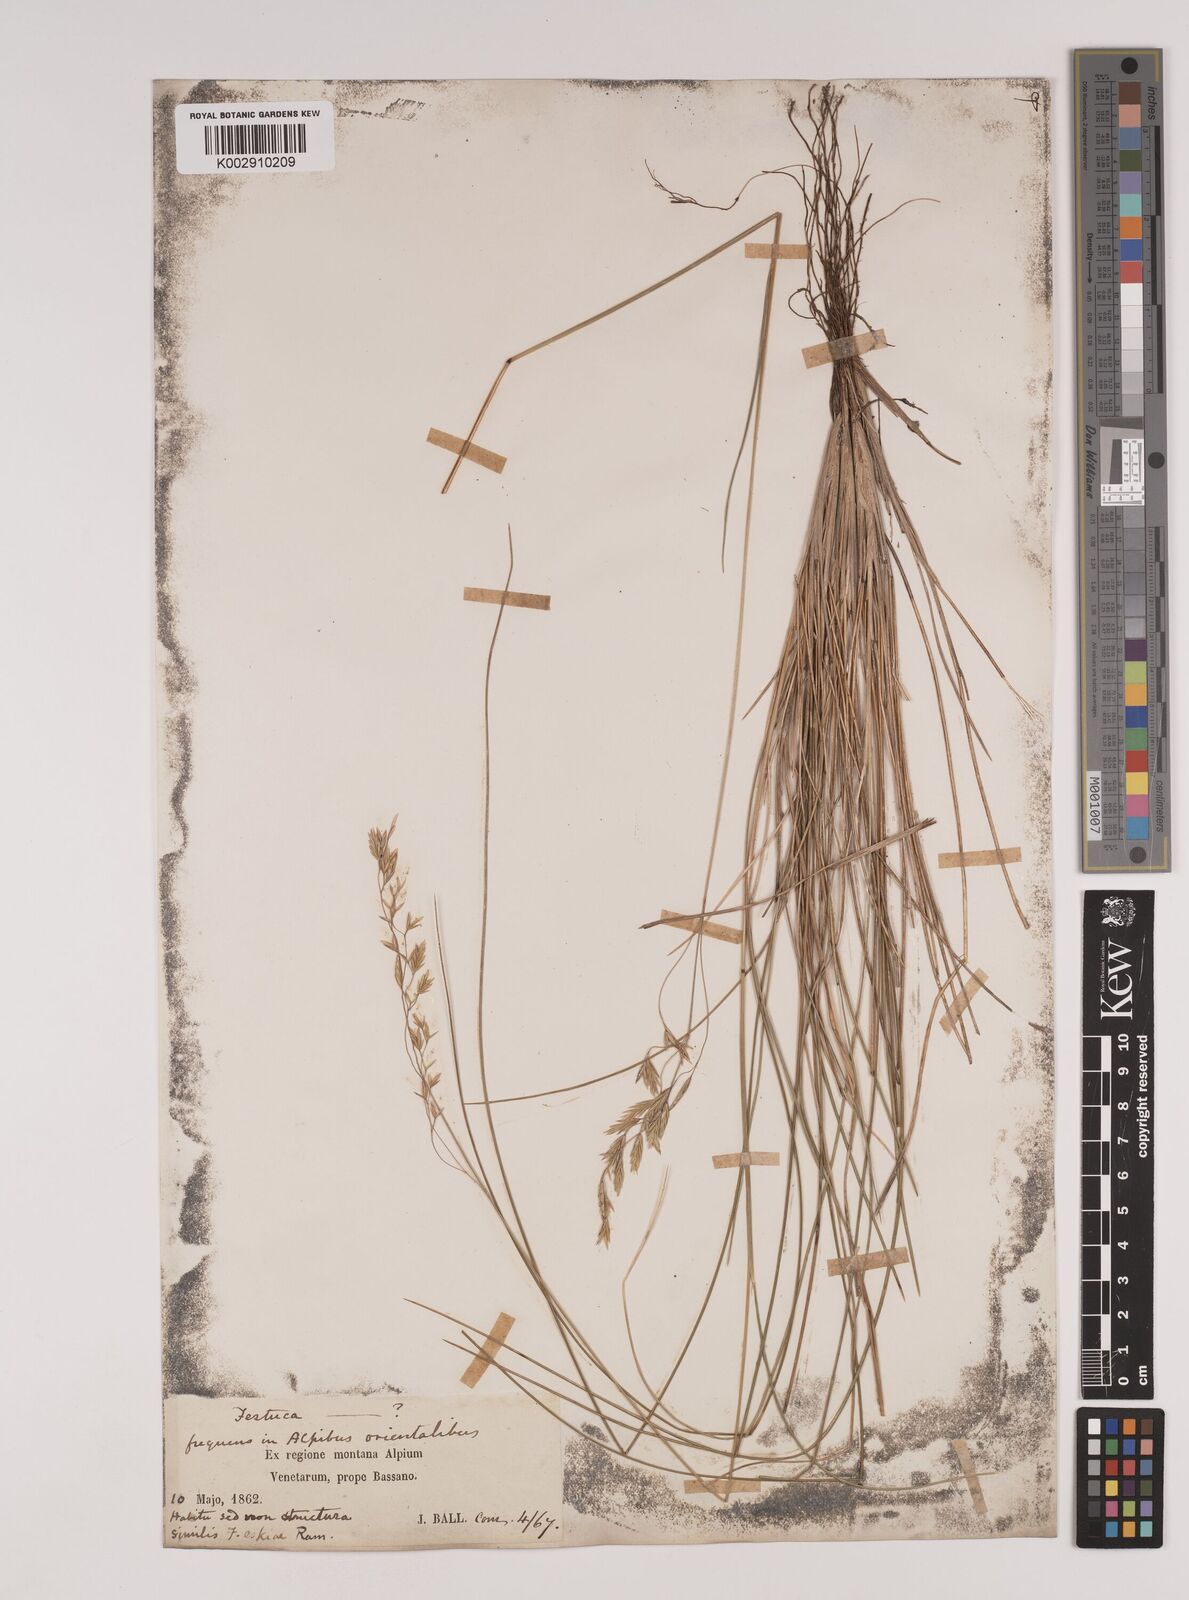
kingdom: Plantae
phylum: Tracheophyta
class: Liliopsida
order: Poales
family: Poaceae
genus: Festuca
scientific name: Festuca varia
